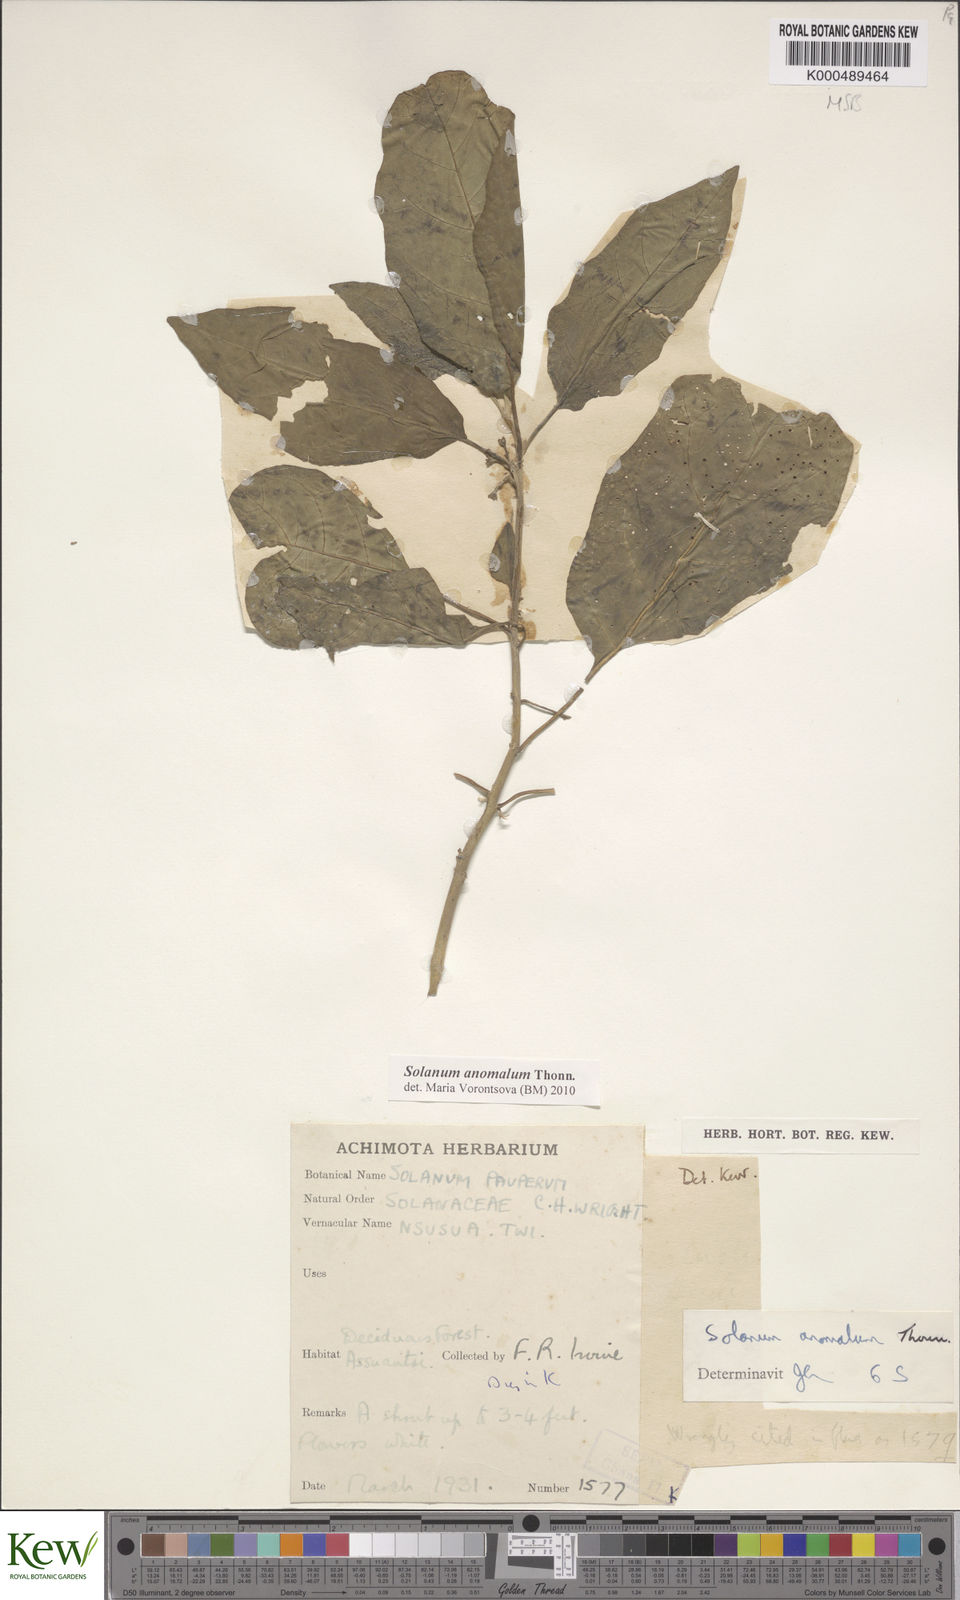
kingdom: Plantae
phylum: Tracheophyta
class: Magnoliopsida
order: Solanales
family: Solanaceae
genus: Solanum
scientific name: Solanum anomalum
